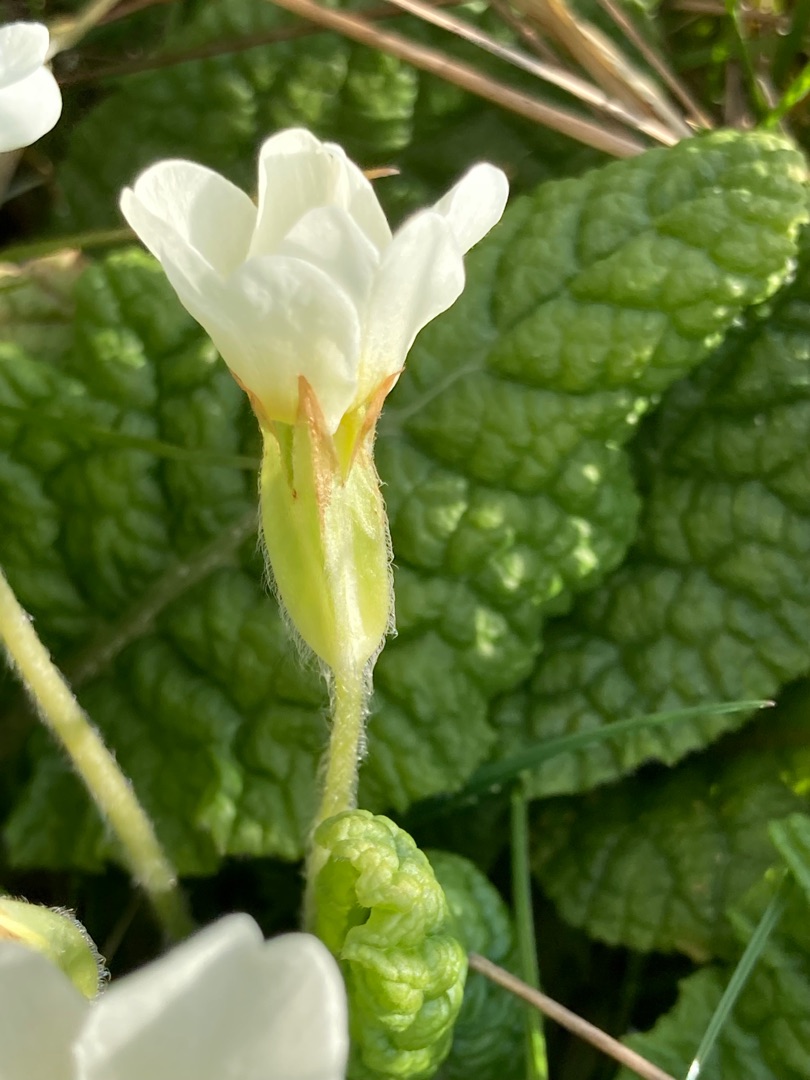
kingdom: Plantae
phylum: Tracheophyta
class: Magnoliopsida
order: Ericales
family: Primulaceae
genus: Primula
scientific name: Primula vulgaris
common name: Storblomstret kodriver
